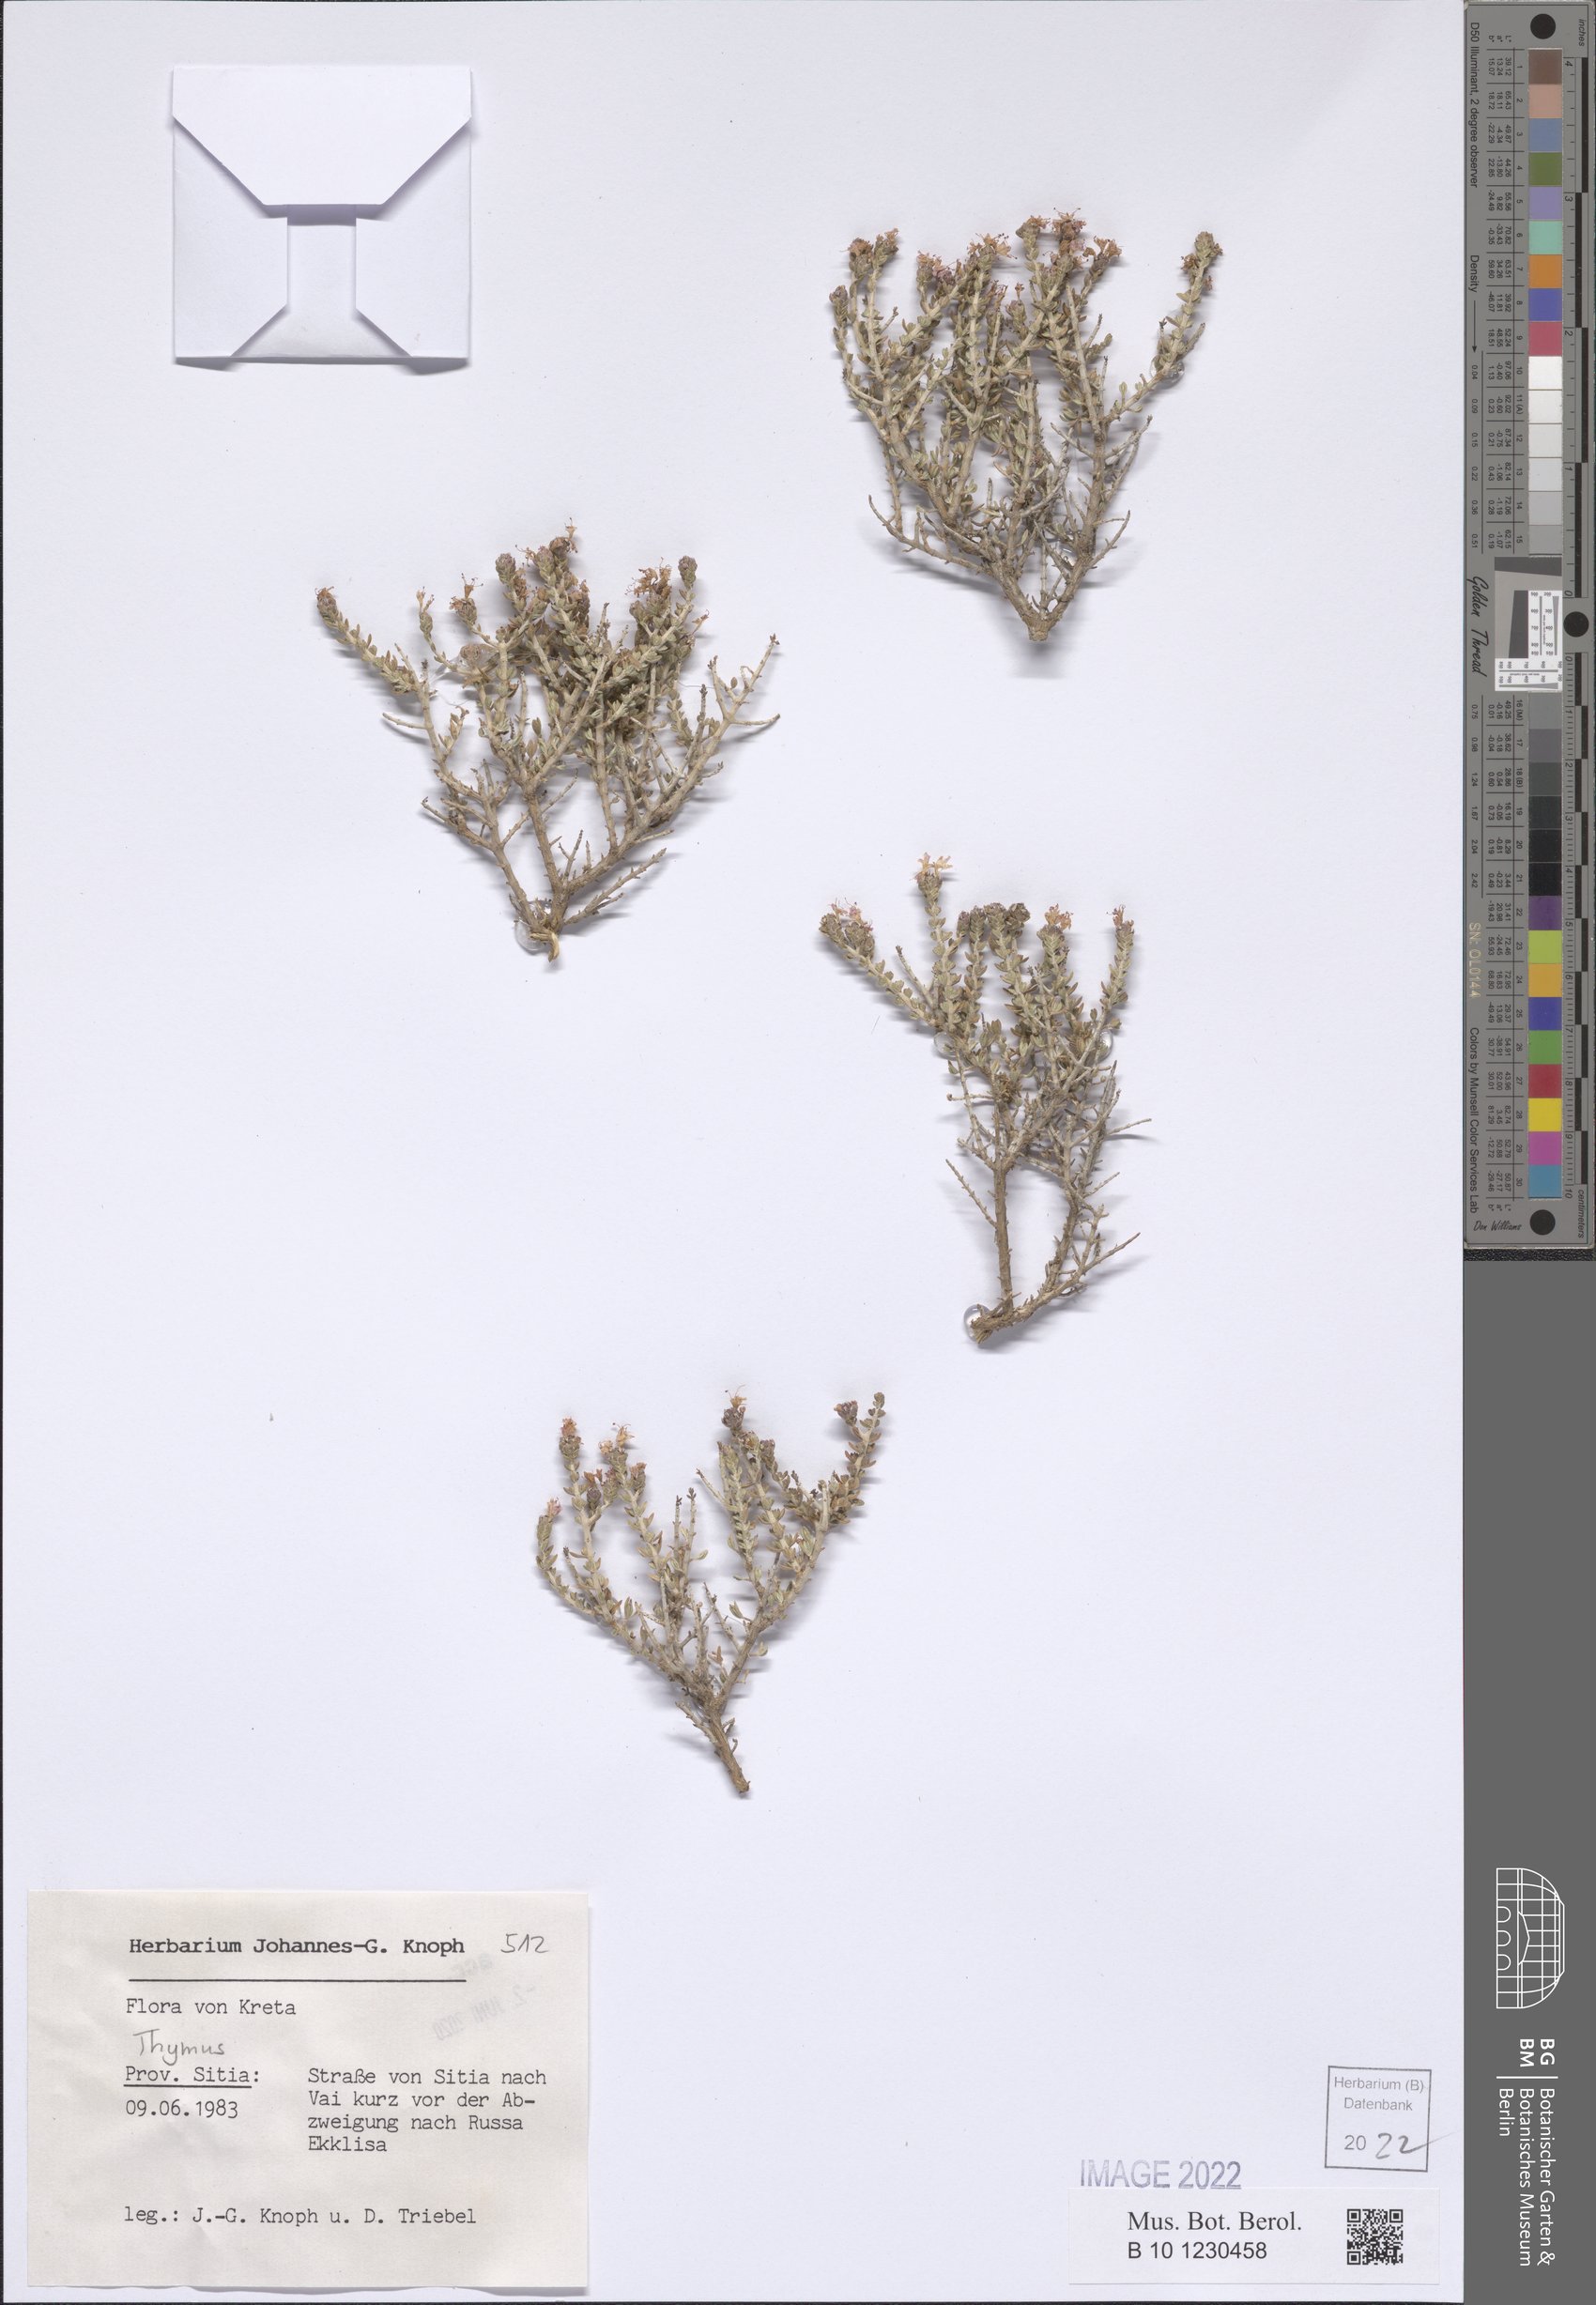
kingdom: Plantae
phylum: Tracheophyta
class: Magnoliopsida
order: Lamiales
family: Lamiaceae
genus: Thymus
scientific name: Thymus
